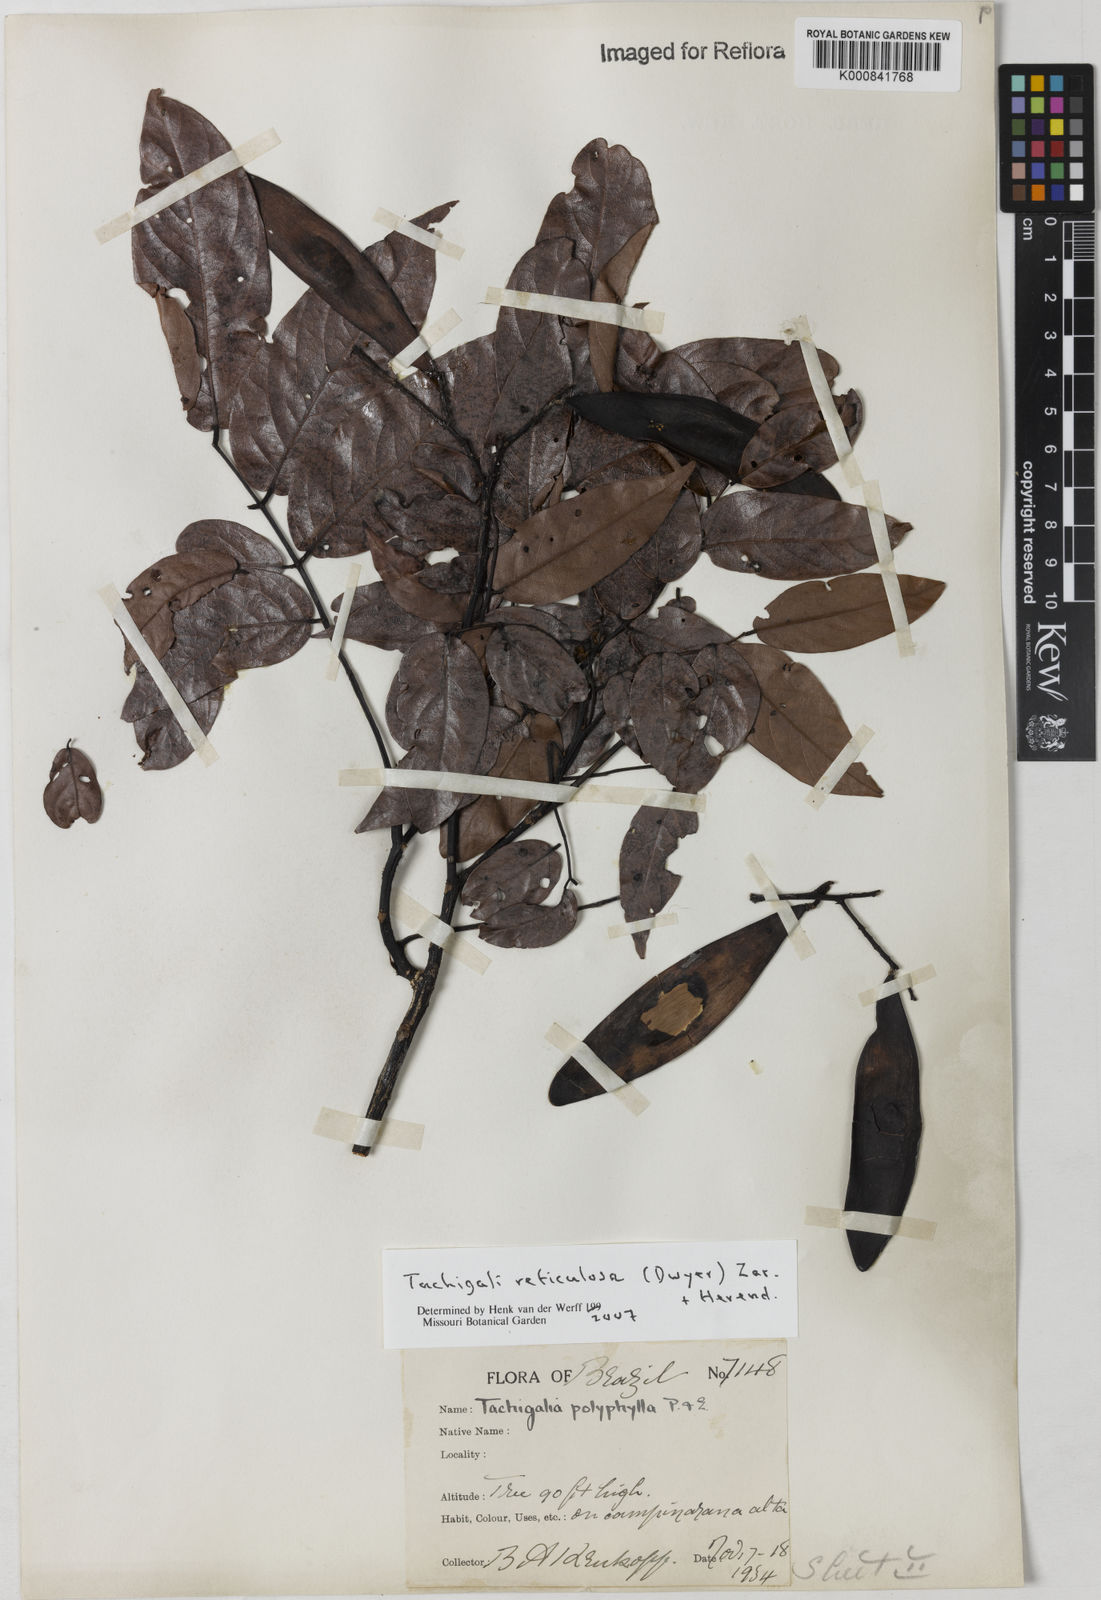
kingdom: Plantae
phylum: Tracheophyta
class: Magnoliopsida
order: Fabales
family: Fabaceae
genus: Tachigali
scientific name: Tachigali tinctoria
